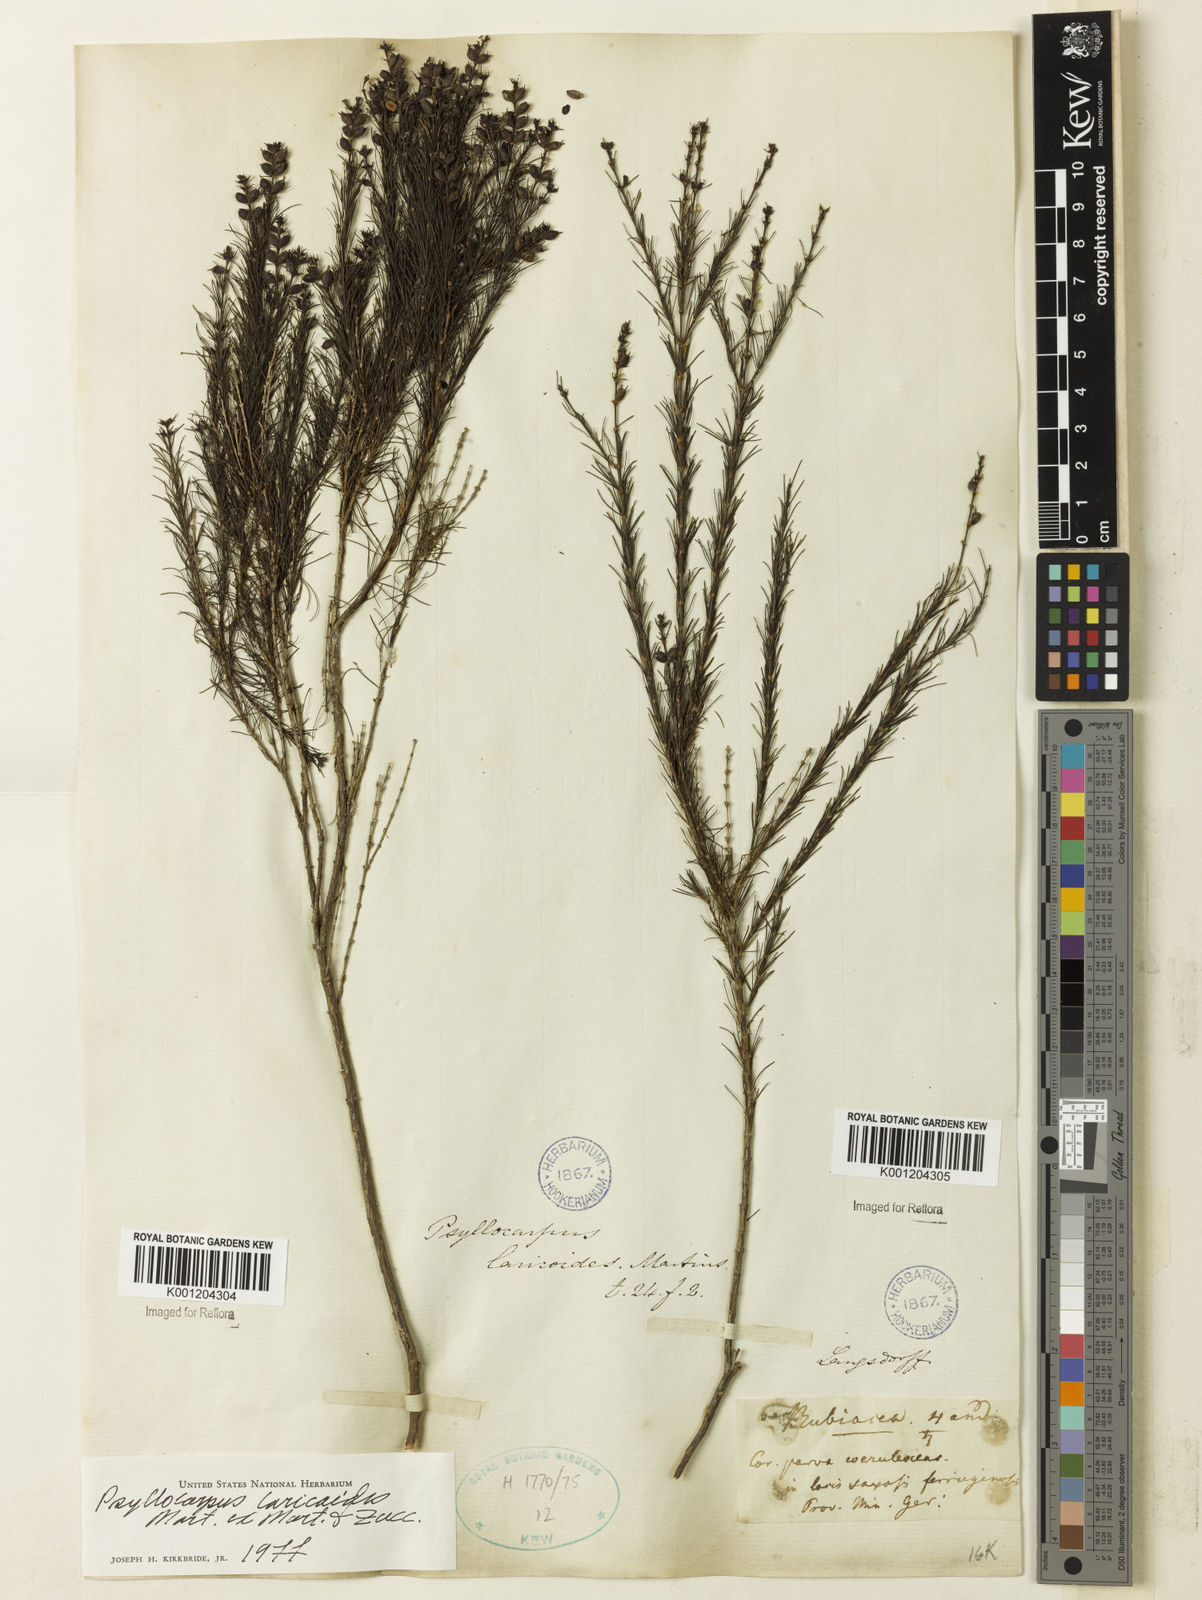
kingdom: Plantae
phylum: Tracheophyta
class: Magnoliopsida
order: Gentianales
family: Rubiaceae
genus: Psyllocarpus
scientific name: Psyllocarpus laricoides
